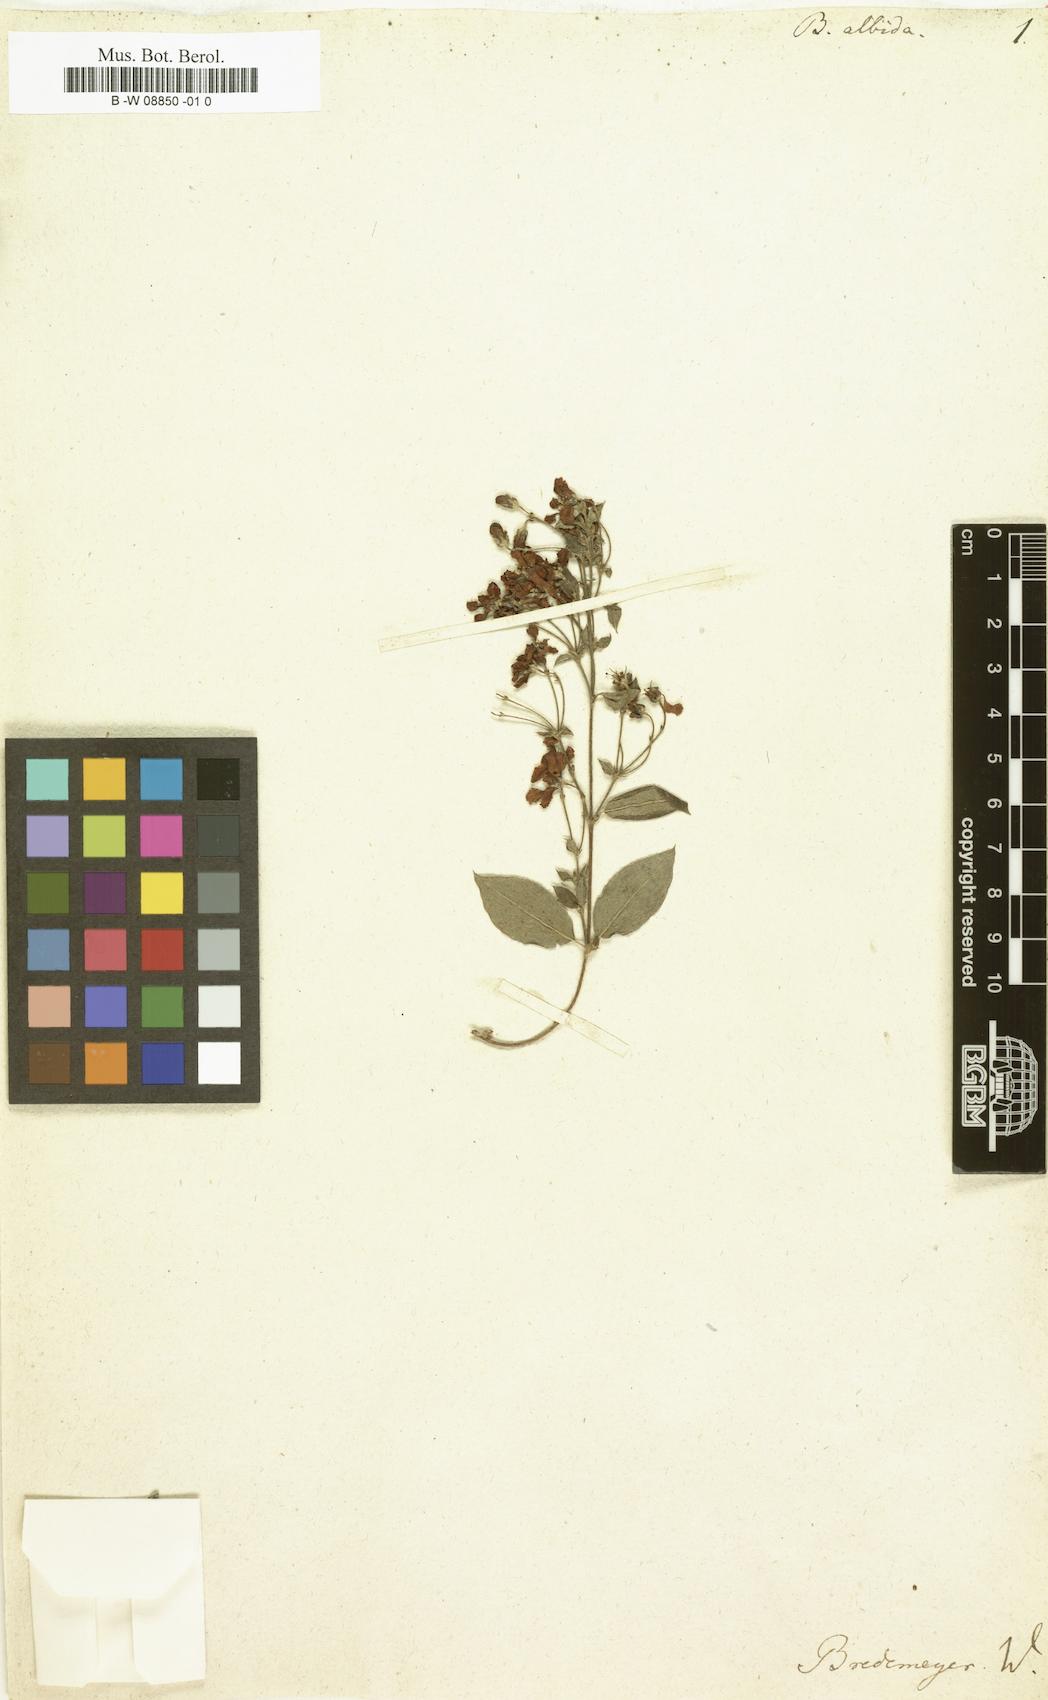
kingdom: Plantae
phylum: Tracheophyta
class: Magnoliopsida
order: Malpighiales
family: Malpighiaceae
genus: Gaudichaudia
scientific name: Gaudichaudia albida
